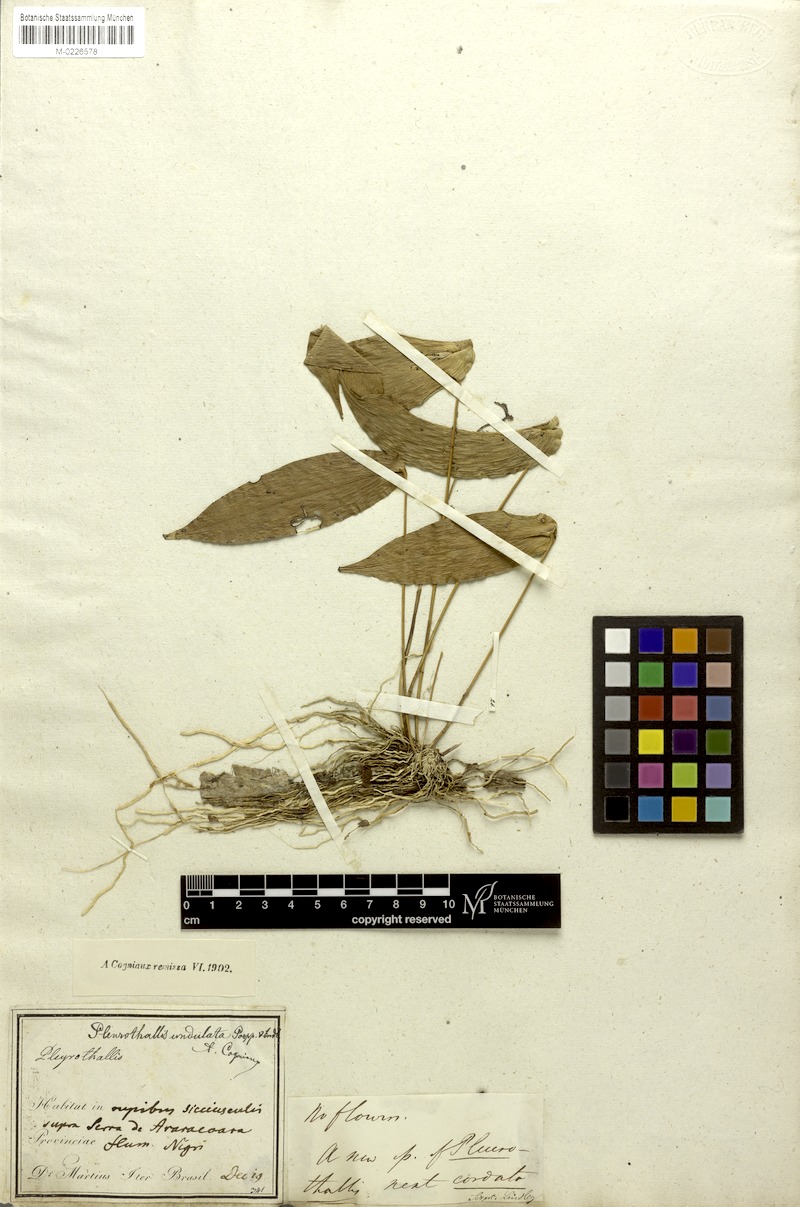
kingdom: Plantae
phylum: Tracheophyta
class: Liliopsida
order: Asparagales
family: Orchidaceae
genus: Pleurothallis
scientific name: Pleurothallis undulata
